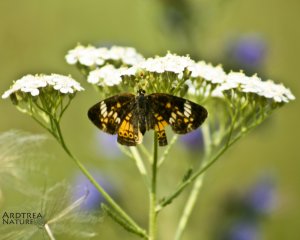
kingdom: Animalia
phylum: Arthropoda
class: Insecta
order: Lepidoptera
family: Nymphalidae
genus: Phyciodes
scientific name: Phyciodes tharos
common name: Northern Crescent
